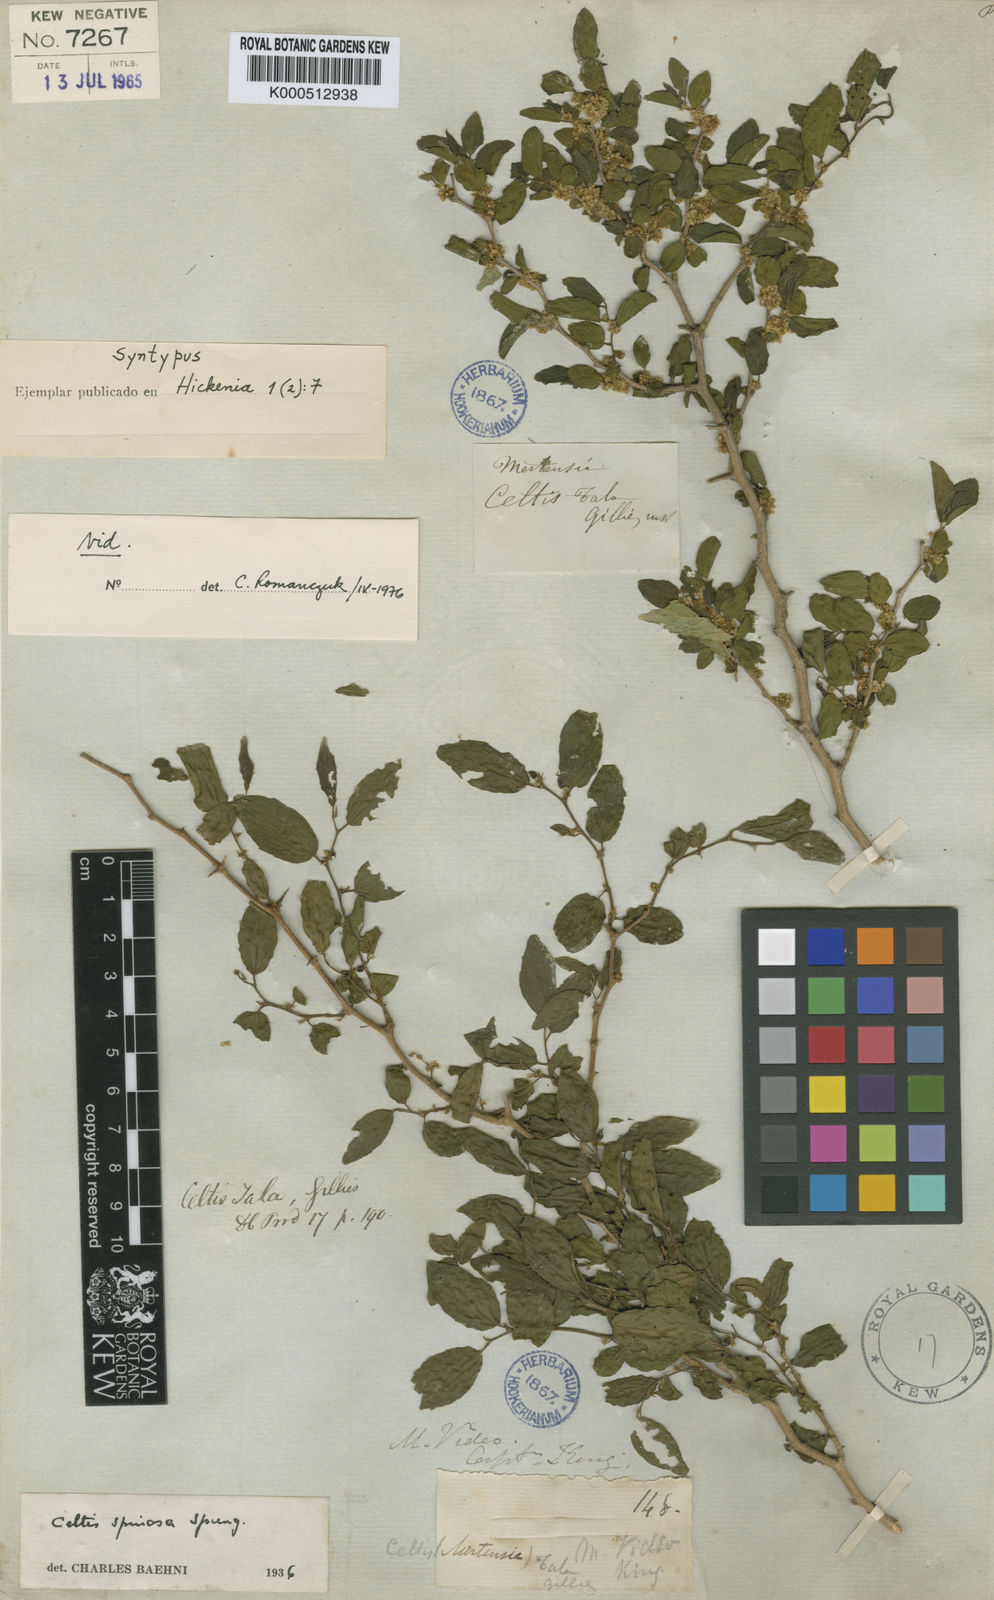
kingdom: Plantae
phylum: Tracheophyta
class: Magnoliopsida
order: Rosales
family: Cannabaceae
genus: Celtis
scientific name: Celtis spinosa
